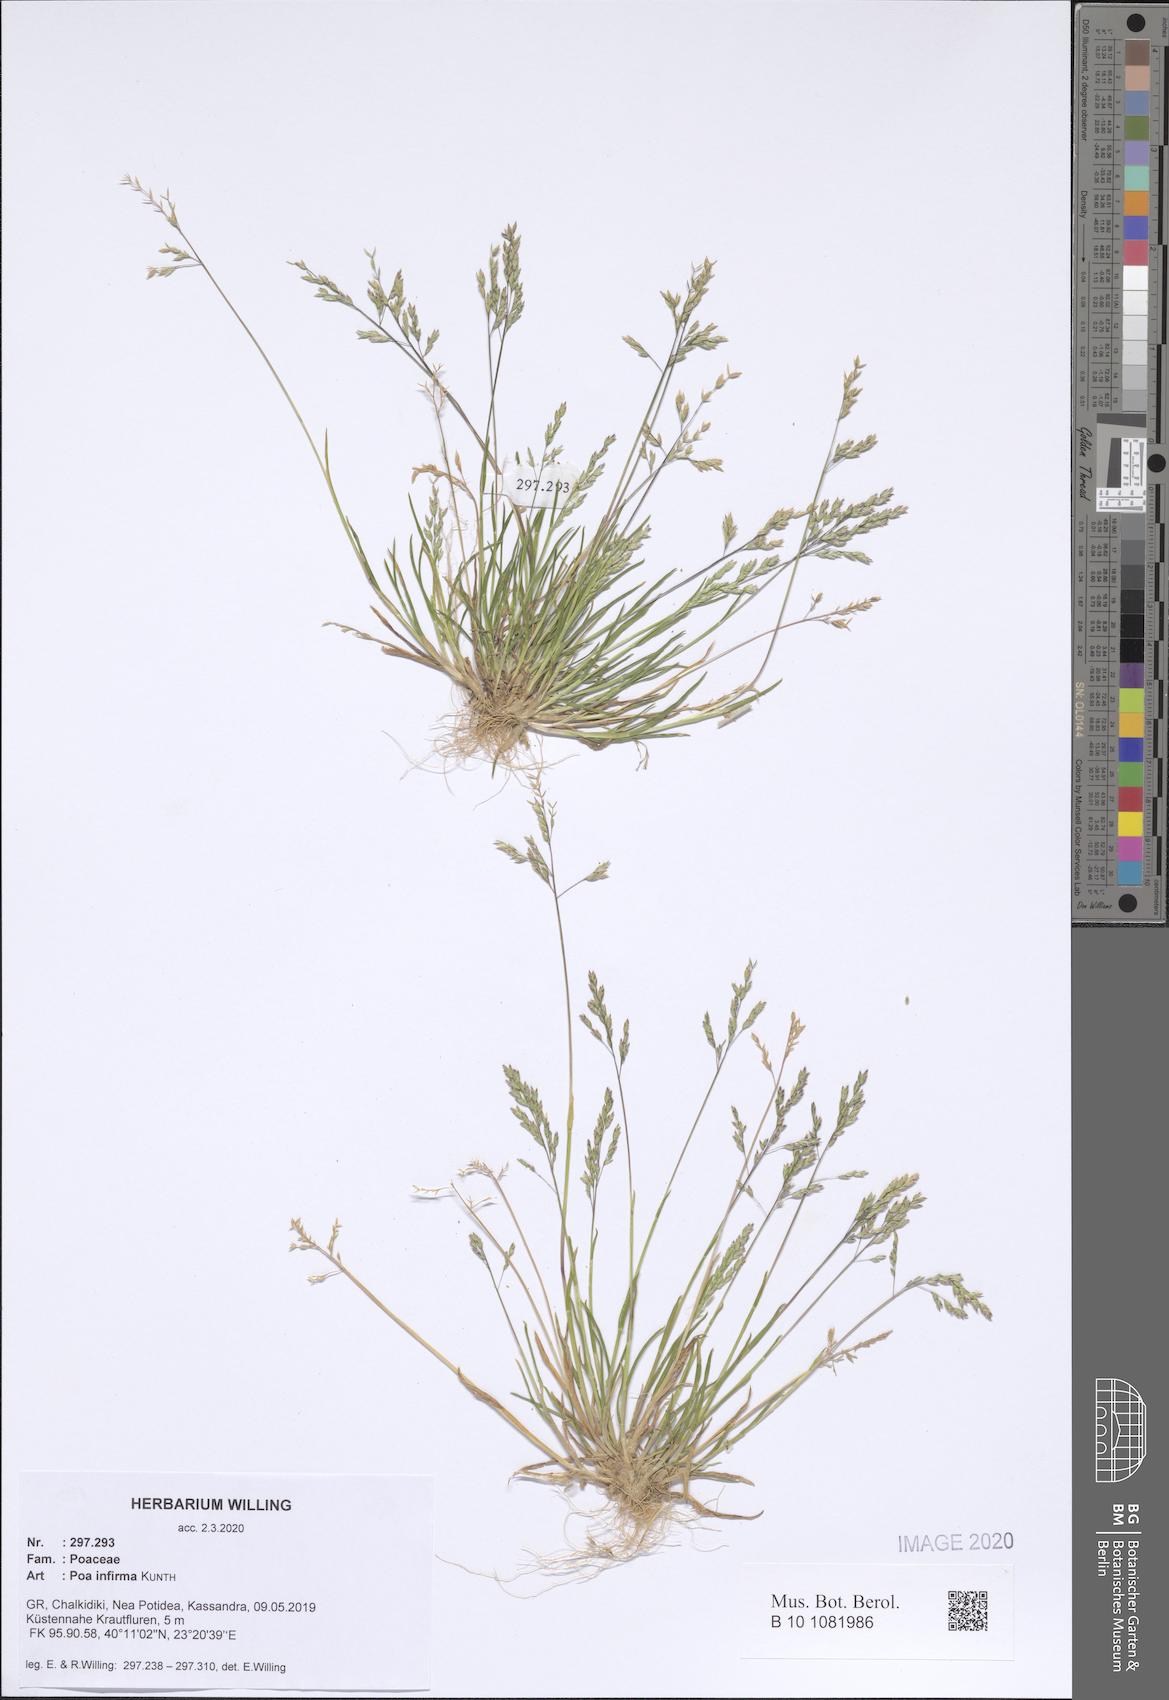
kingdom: Plantae
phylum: Tracheophyta
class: Liliopsida
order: Poales
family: Poaceae
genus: Poa
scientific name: Poa infirma
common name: Weak bluegrass
